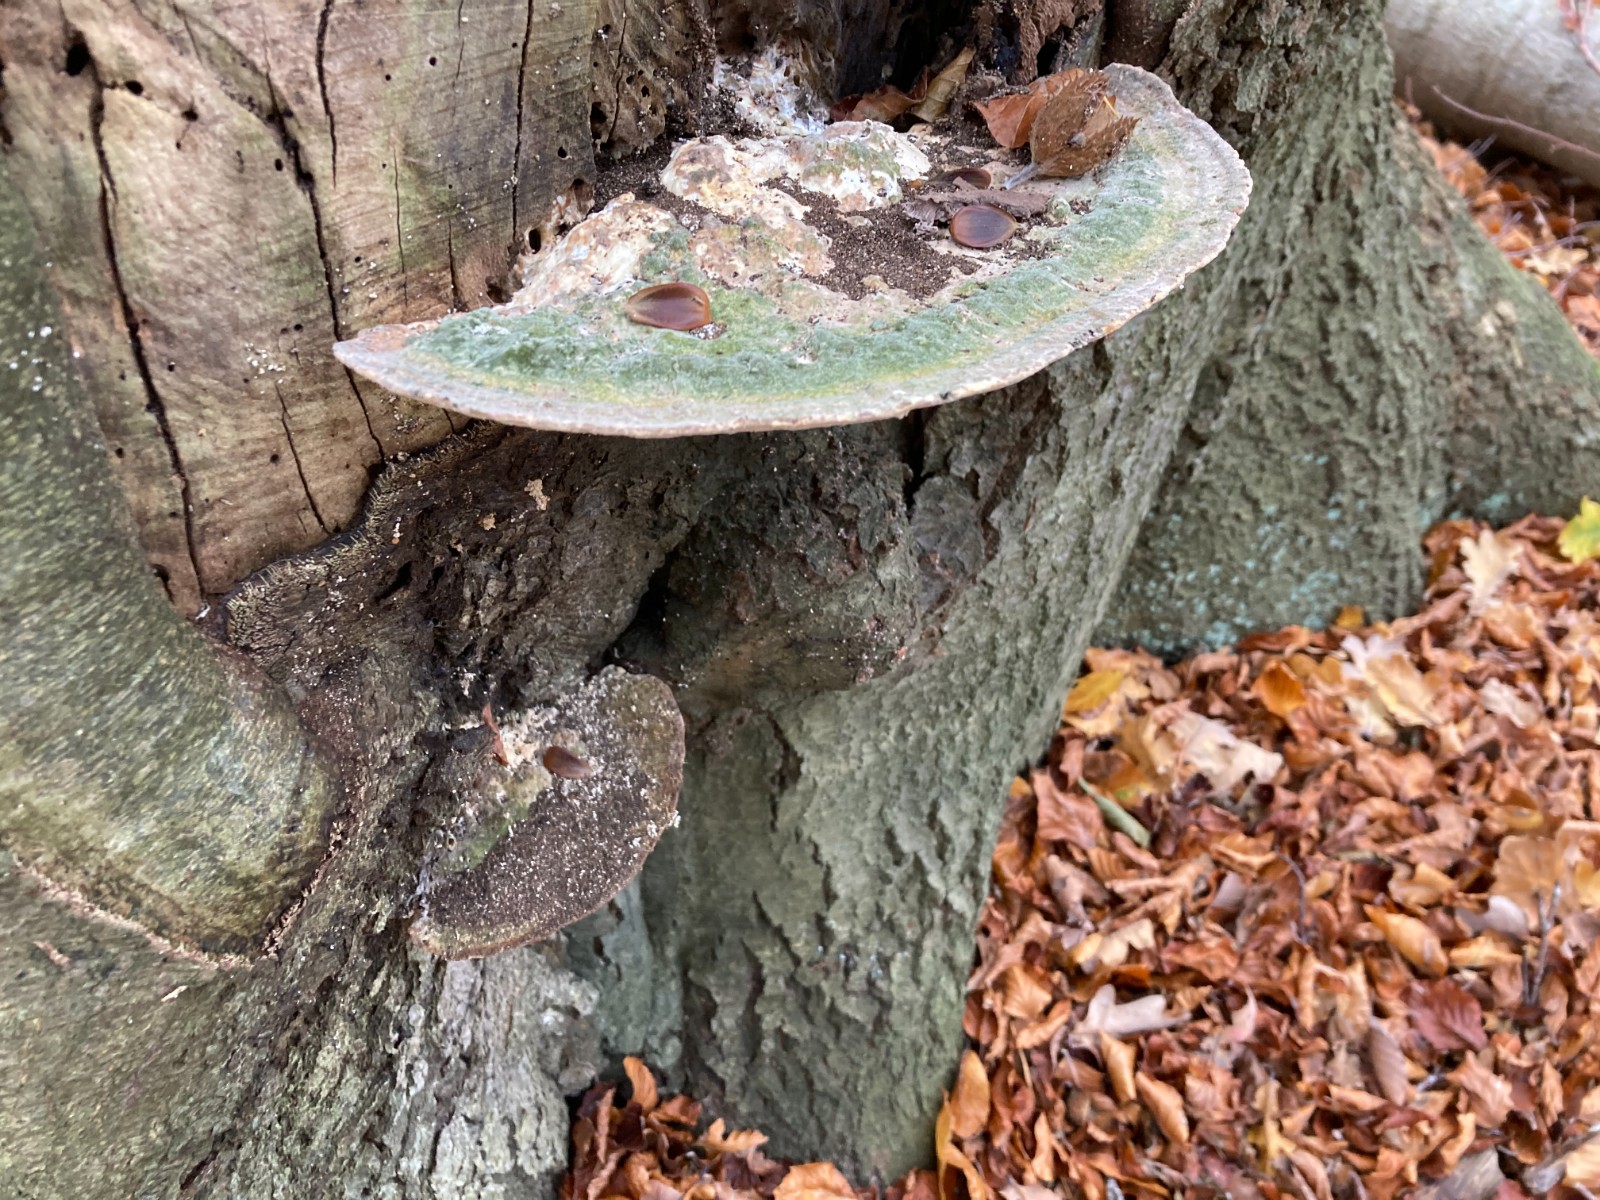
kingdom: Fungi
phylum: Basidiomycota
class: Agaricomycetes
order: Polyporales
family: Polyporaceae
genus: Trametes
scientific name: Trametes gibbosa
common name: puklet læderporesvamp
